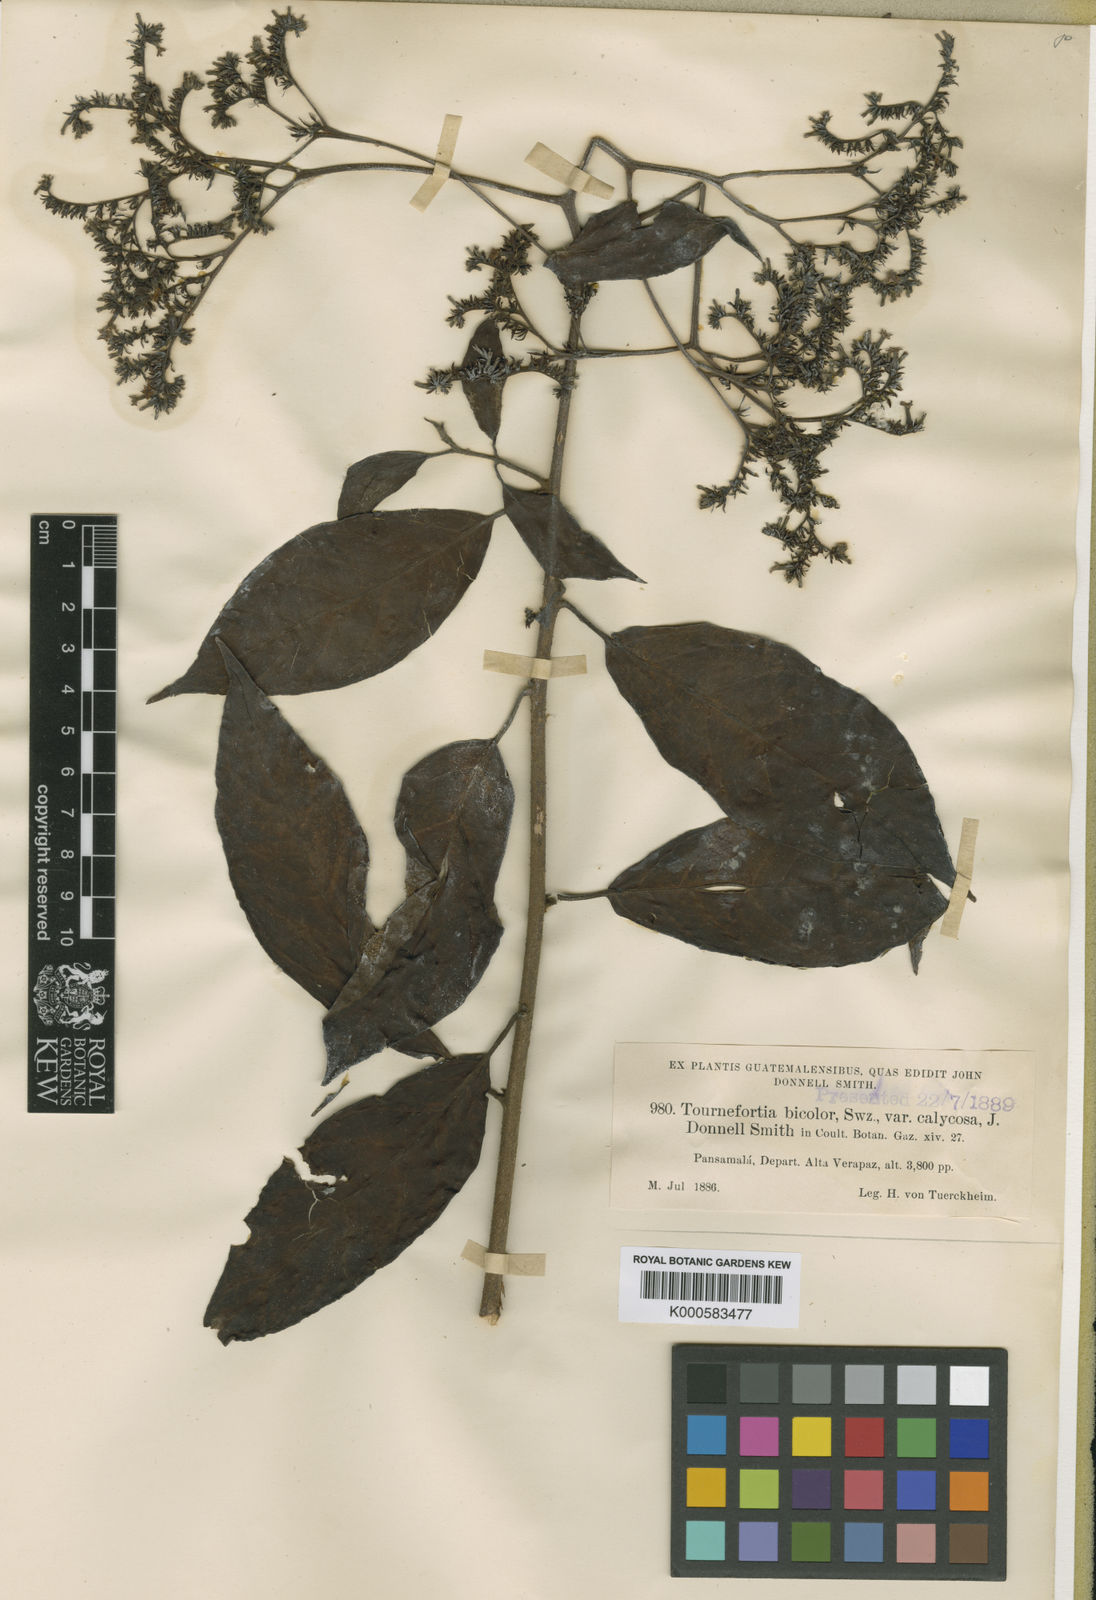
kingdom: Plantae
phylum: Tracheophyta
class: Magnoliopsida
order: Boraginales
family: Heliotropiaceae
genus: Heliotropium
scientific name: Heliotropium verdcourtii
